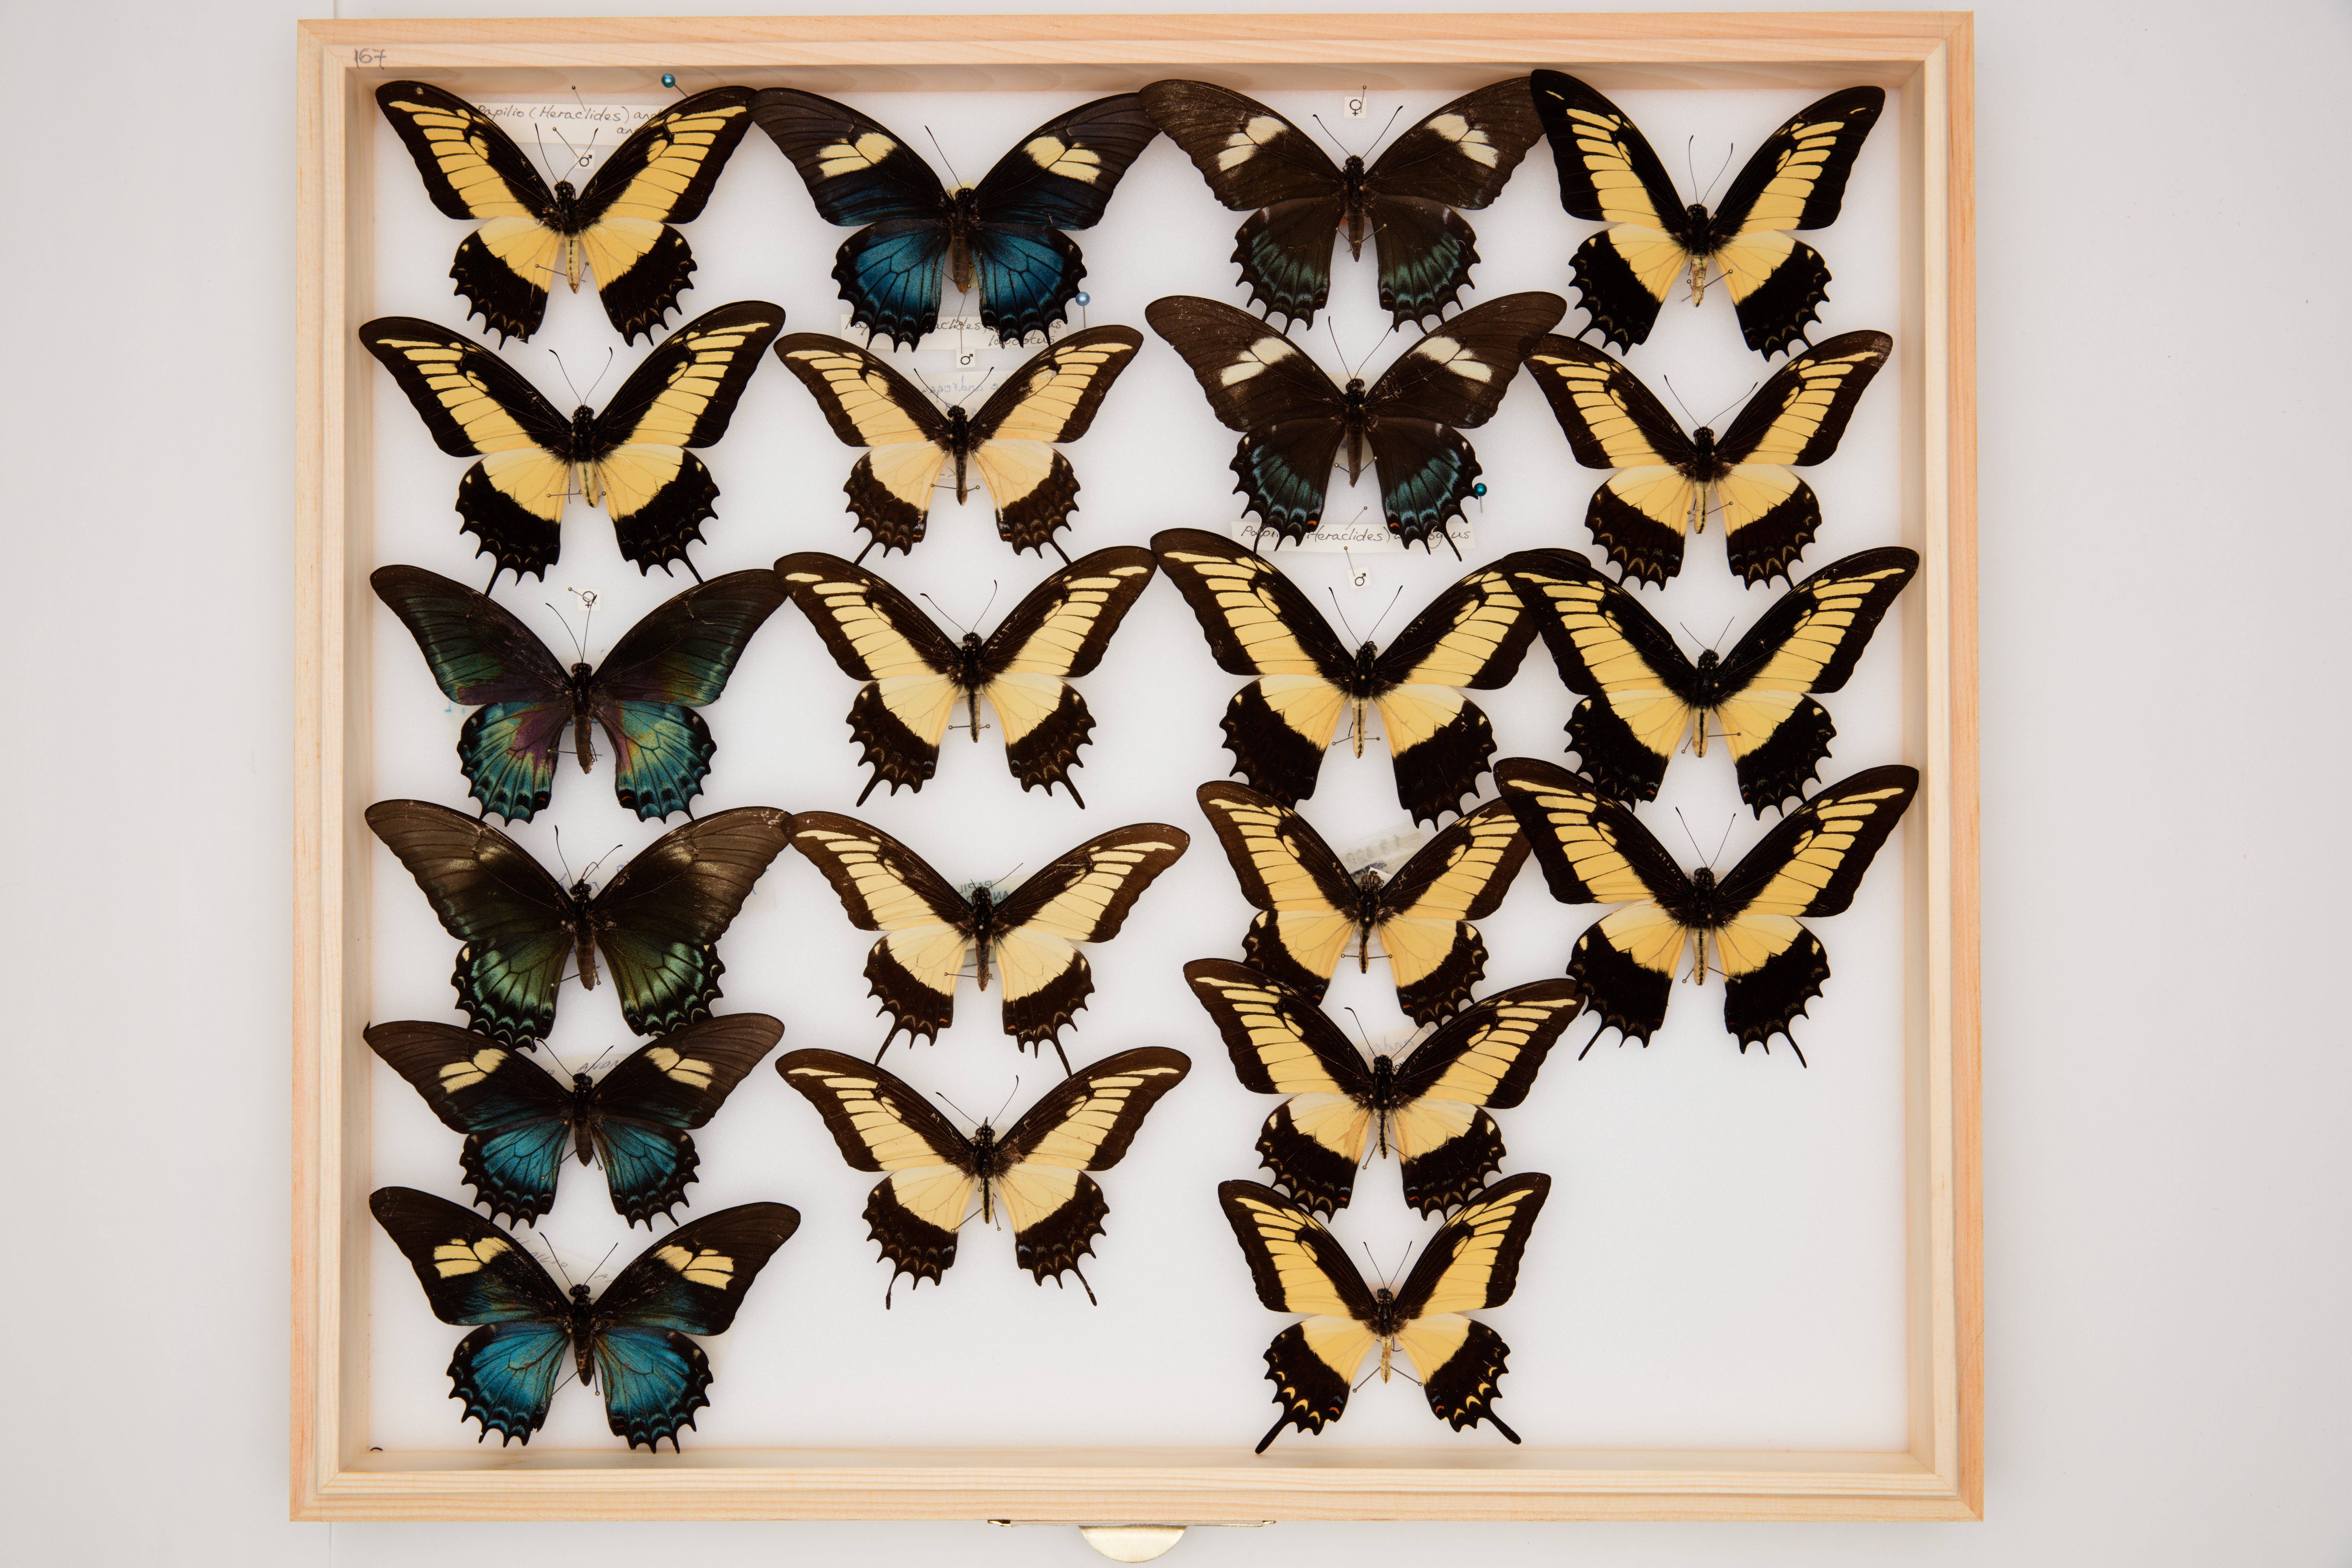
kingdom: Animalia
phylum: Arthropoda
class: Insecta
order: Lepidoptera
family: Papilionidae
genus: Papilio
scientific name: Papilio androgeus
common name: Androgeus swallowtail
